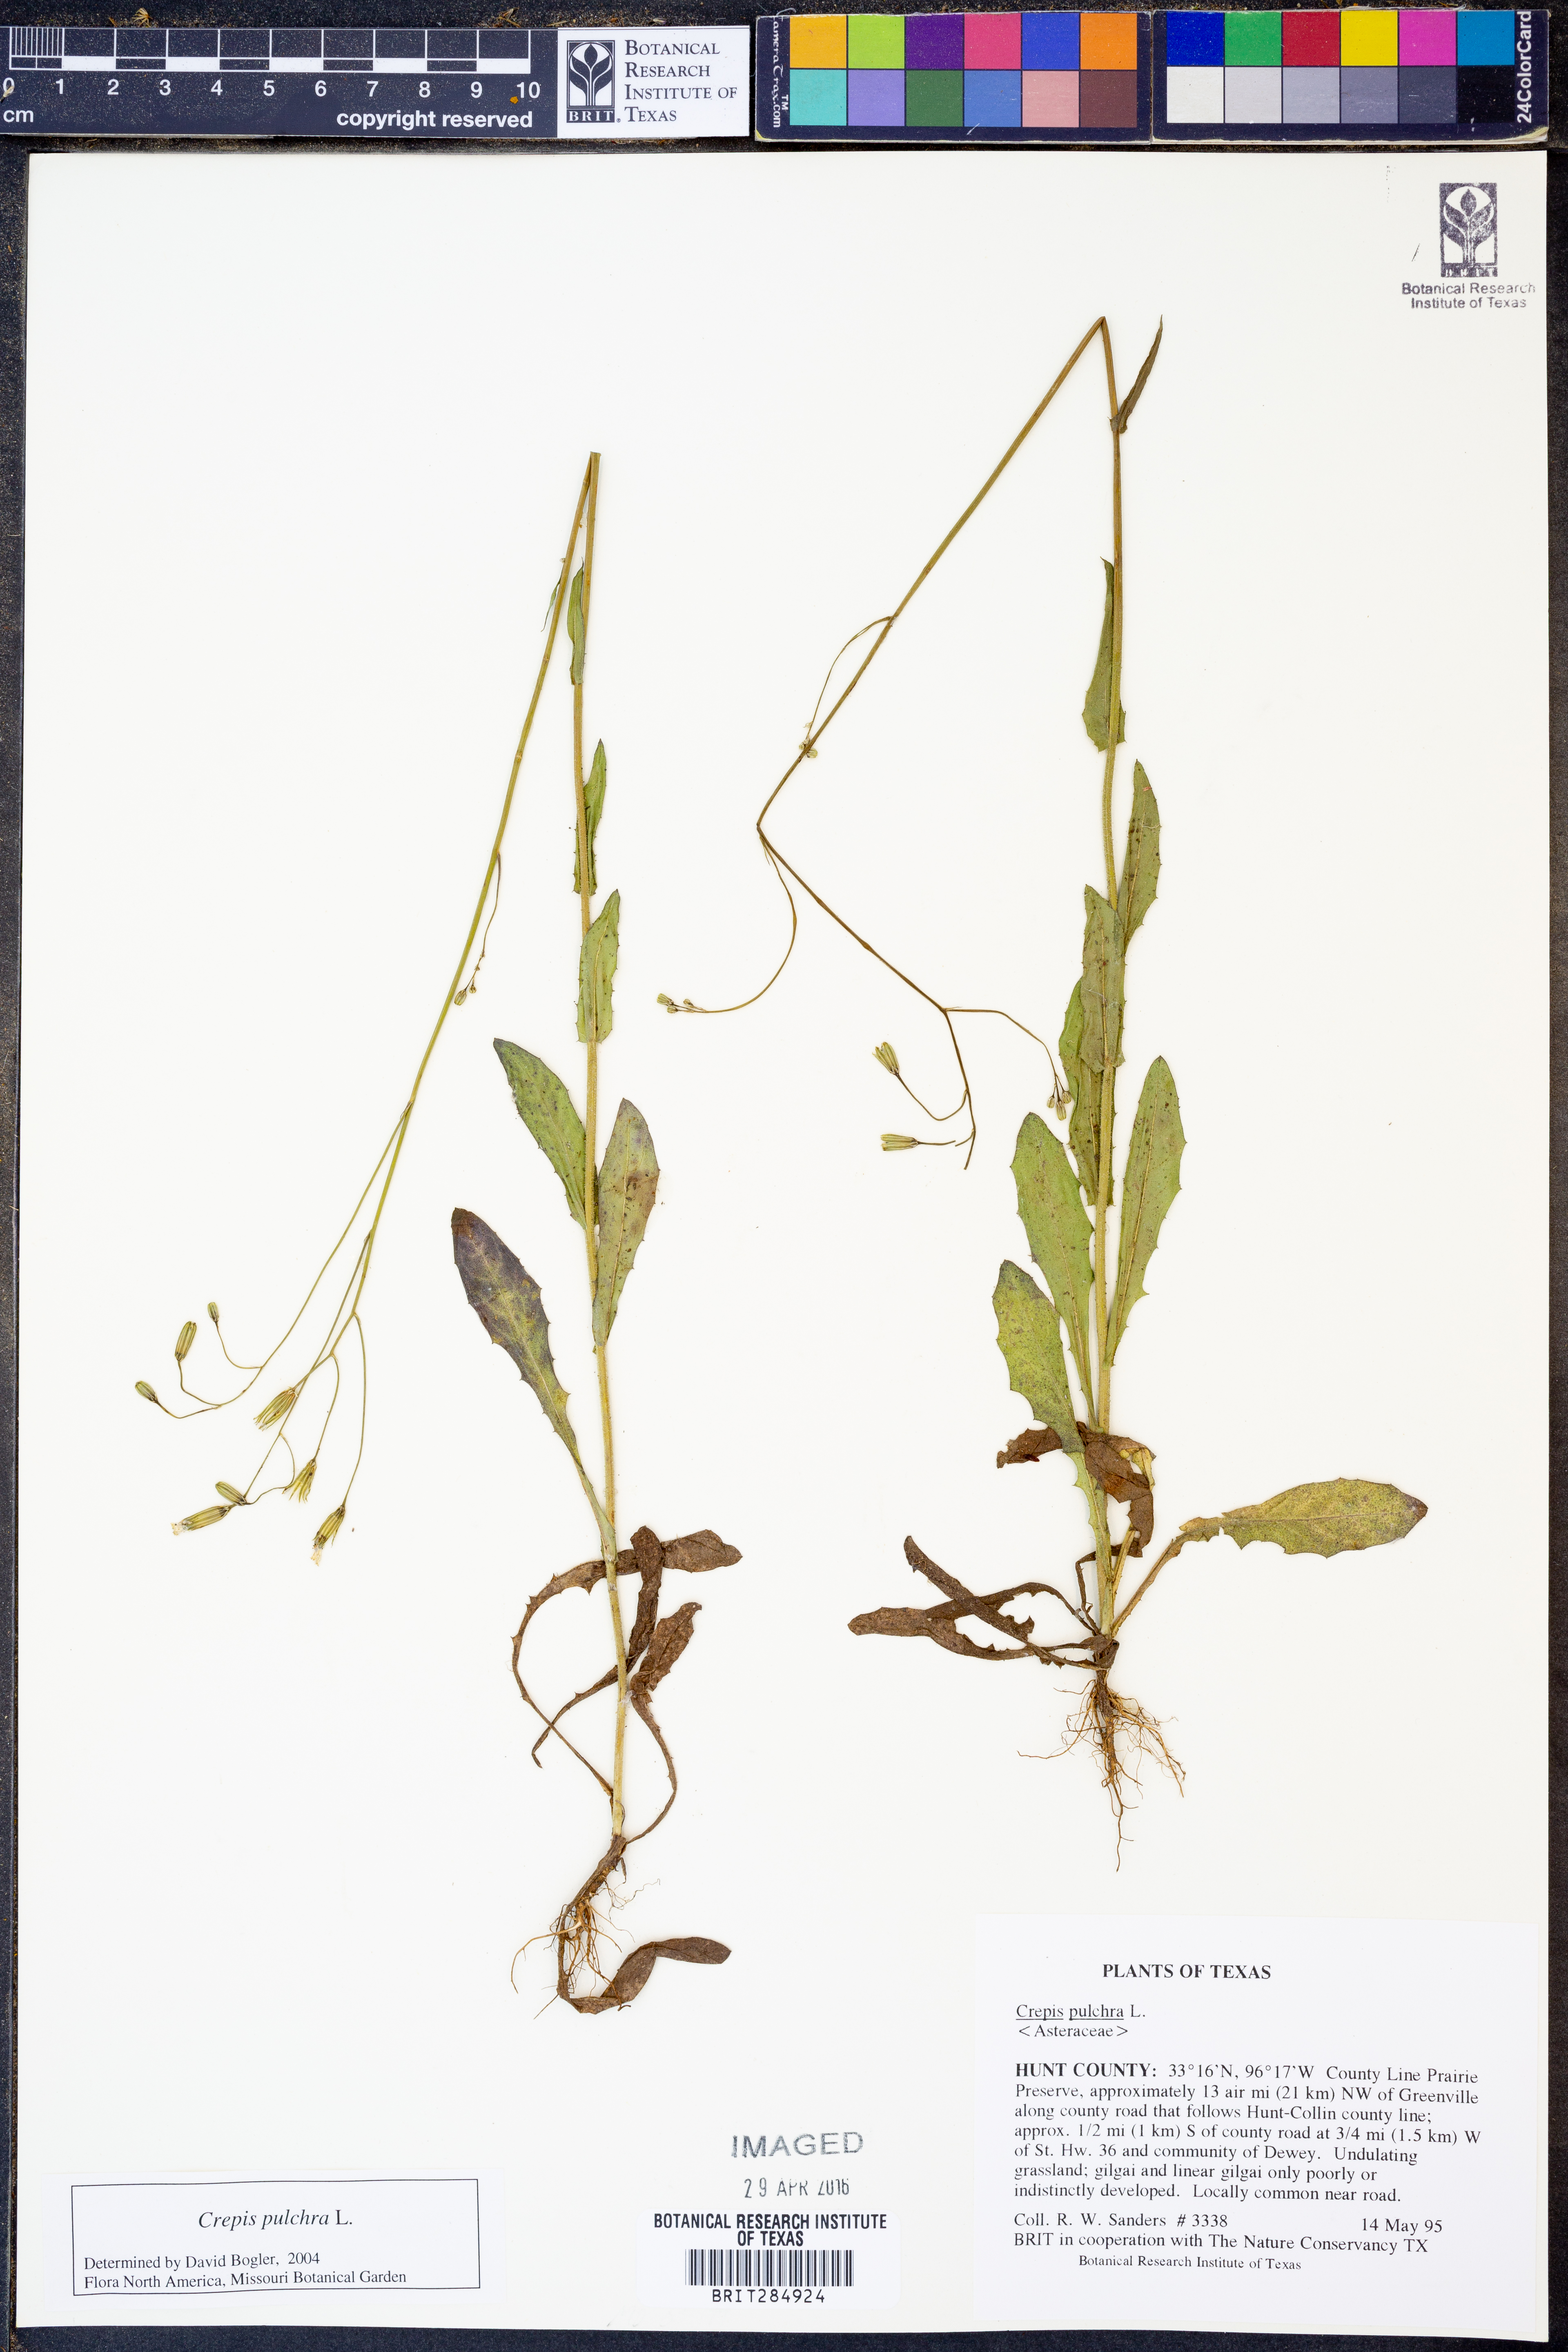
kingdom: Plantae
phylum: Tracheophyta
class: Magnoliopsida
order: Asterales
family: Asteraceae
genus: Crepis
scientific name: Crepis pulchra
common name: Hawk's-beard
